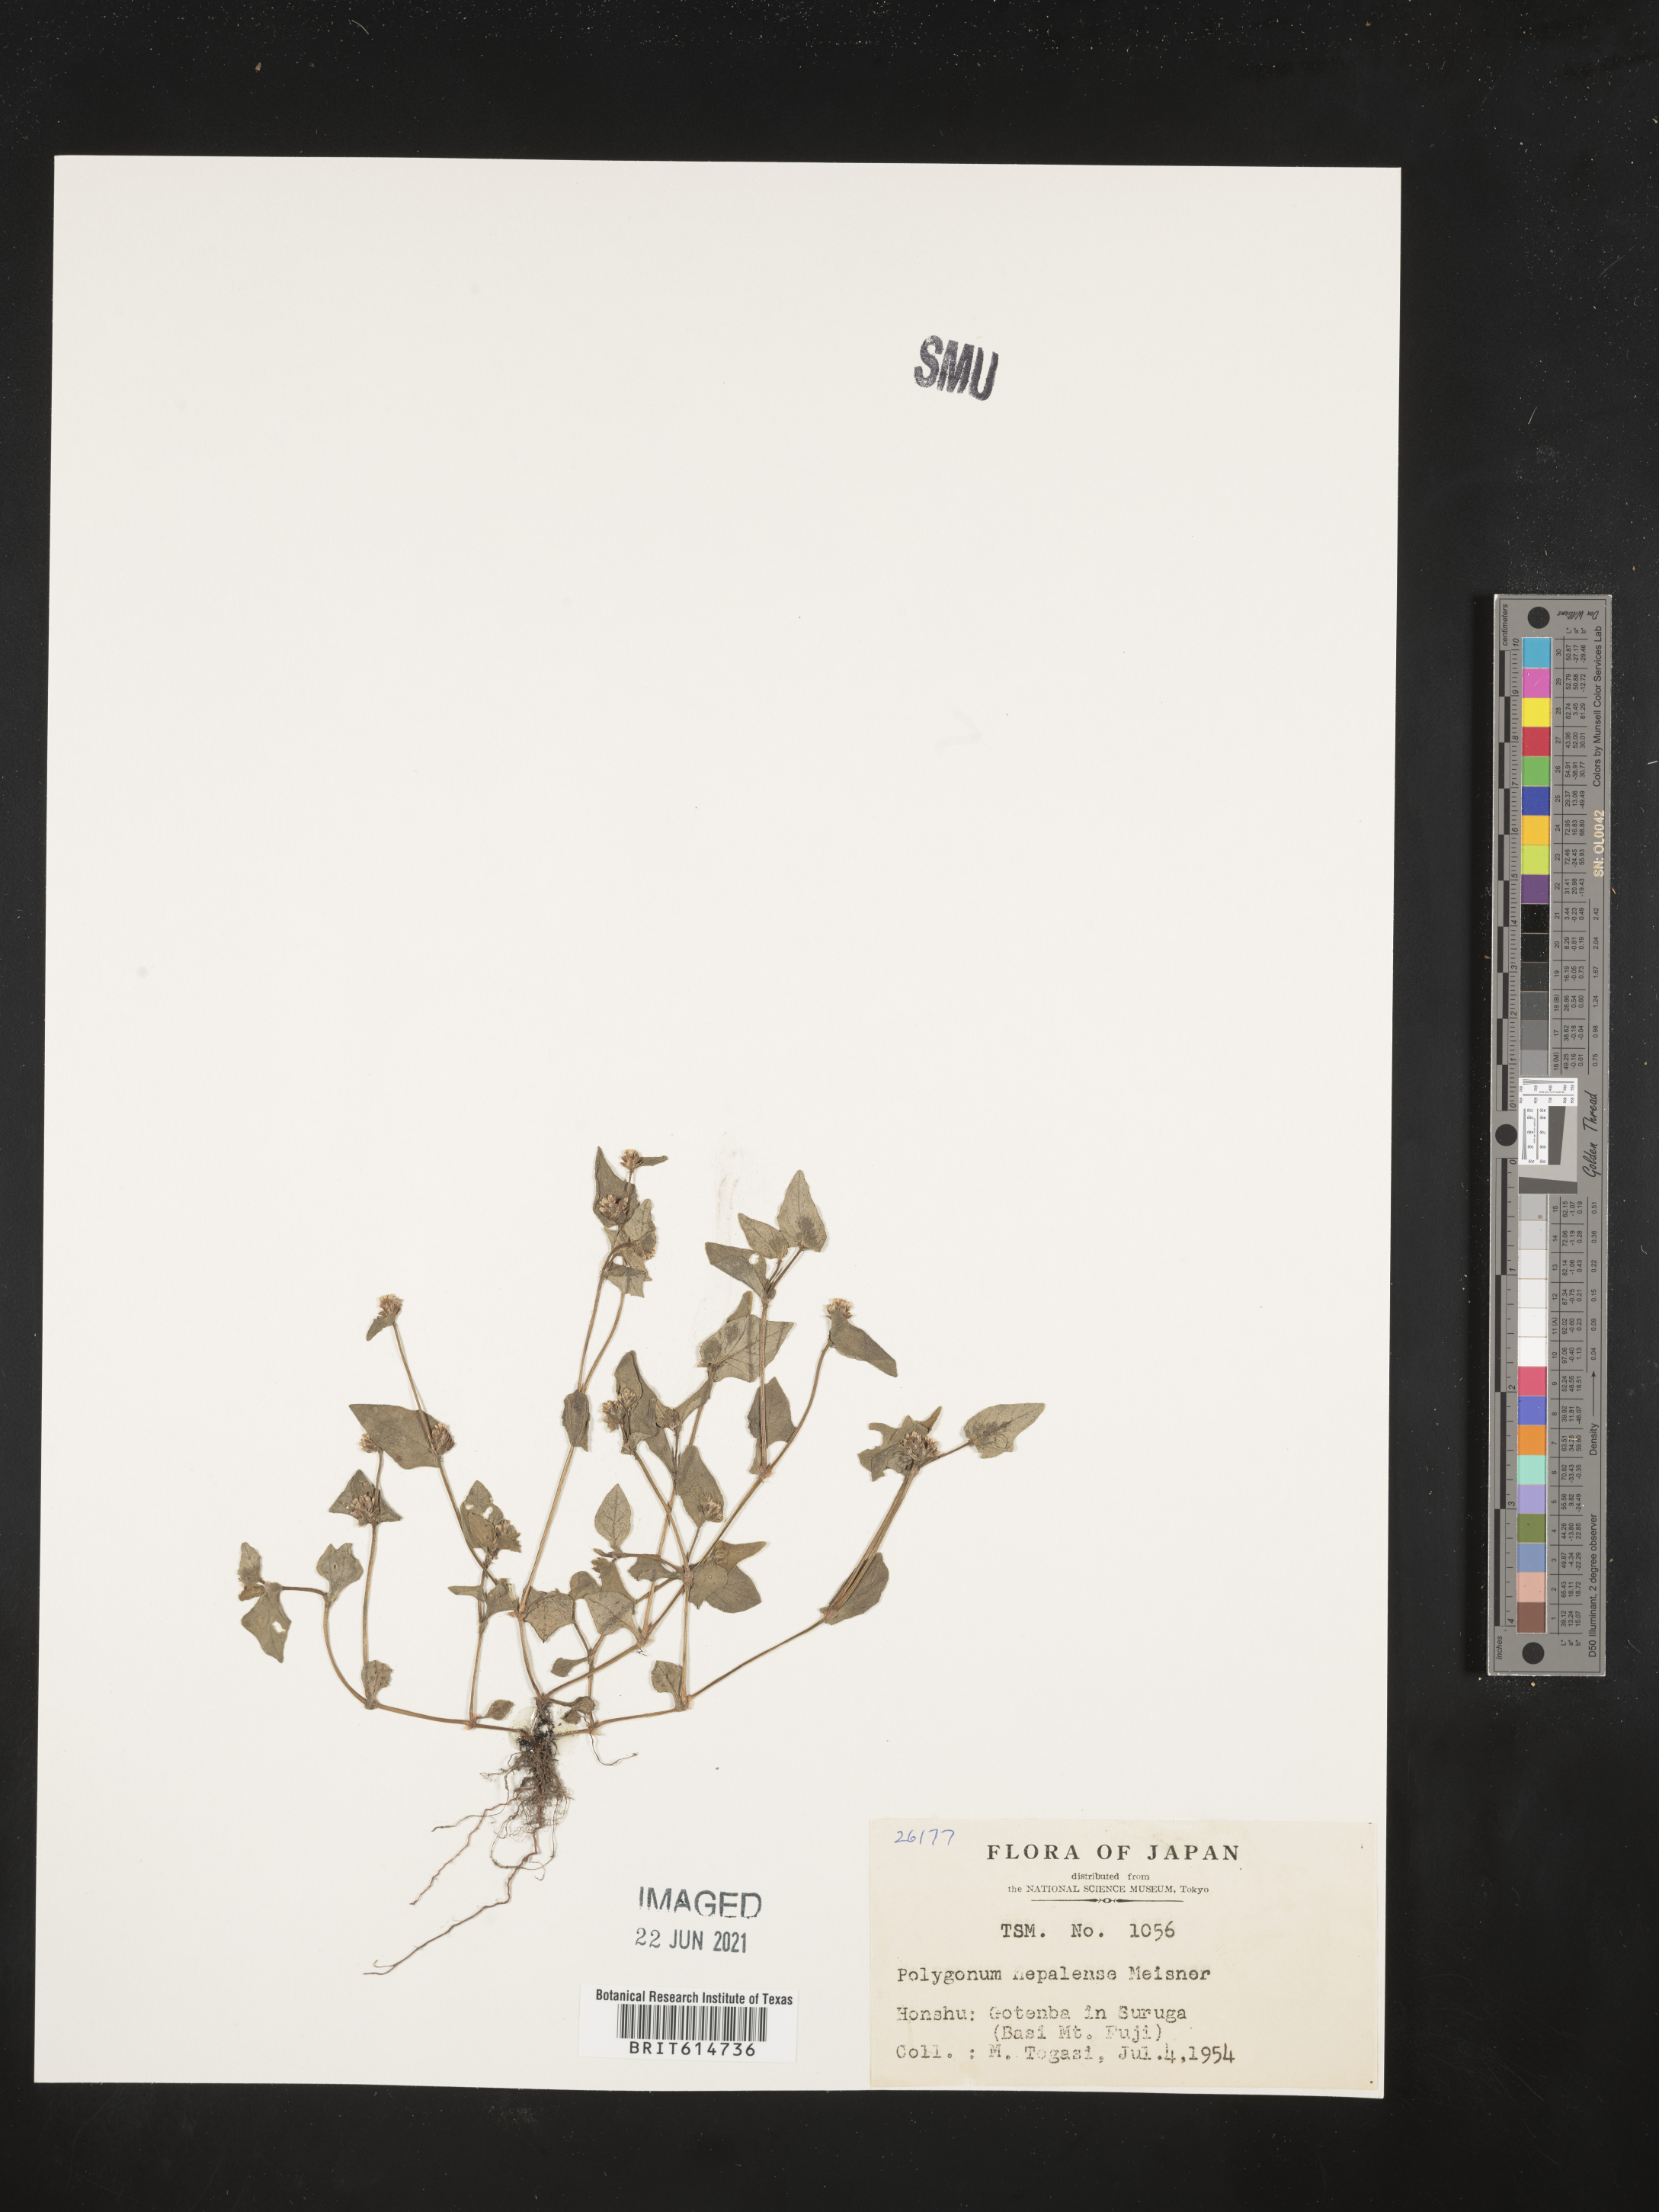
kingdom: Plantae
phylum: Tracheophyta
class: Magnoliopsida
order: Caryophyllales
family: Polygonaceae
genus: Persicaria
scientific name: Persicaria nepalensis
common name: Nepal persicaria
